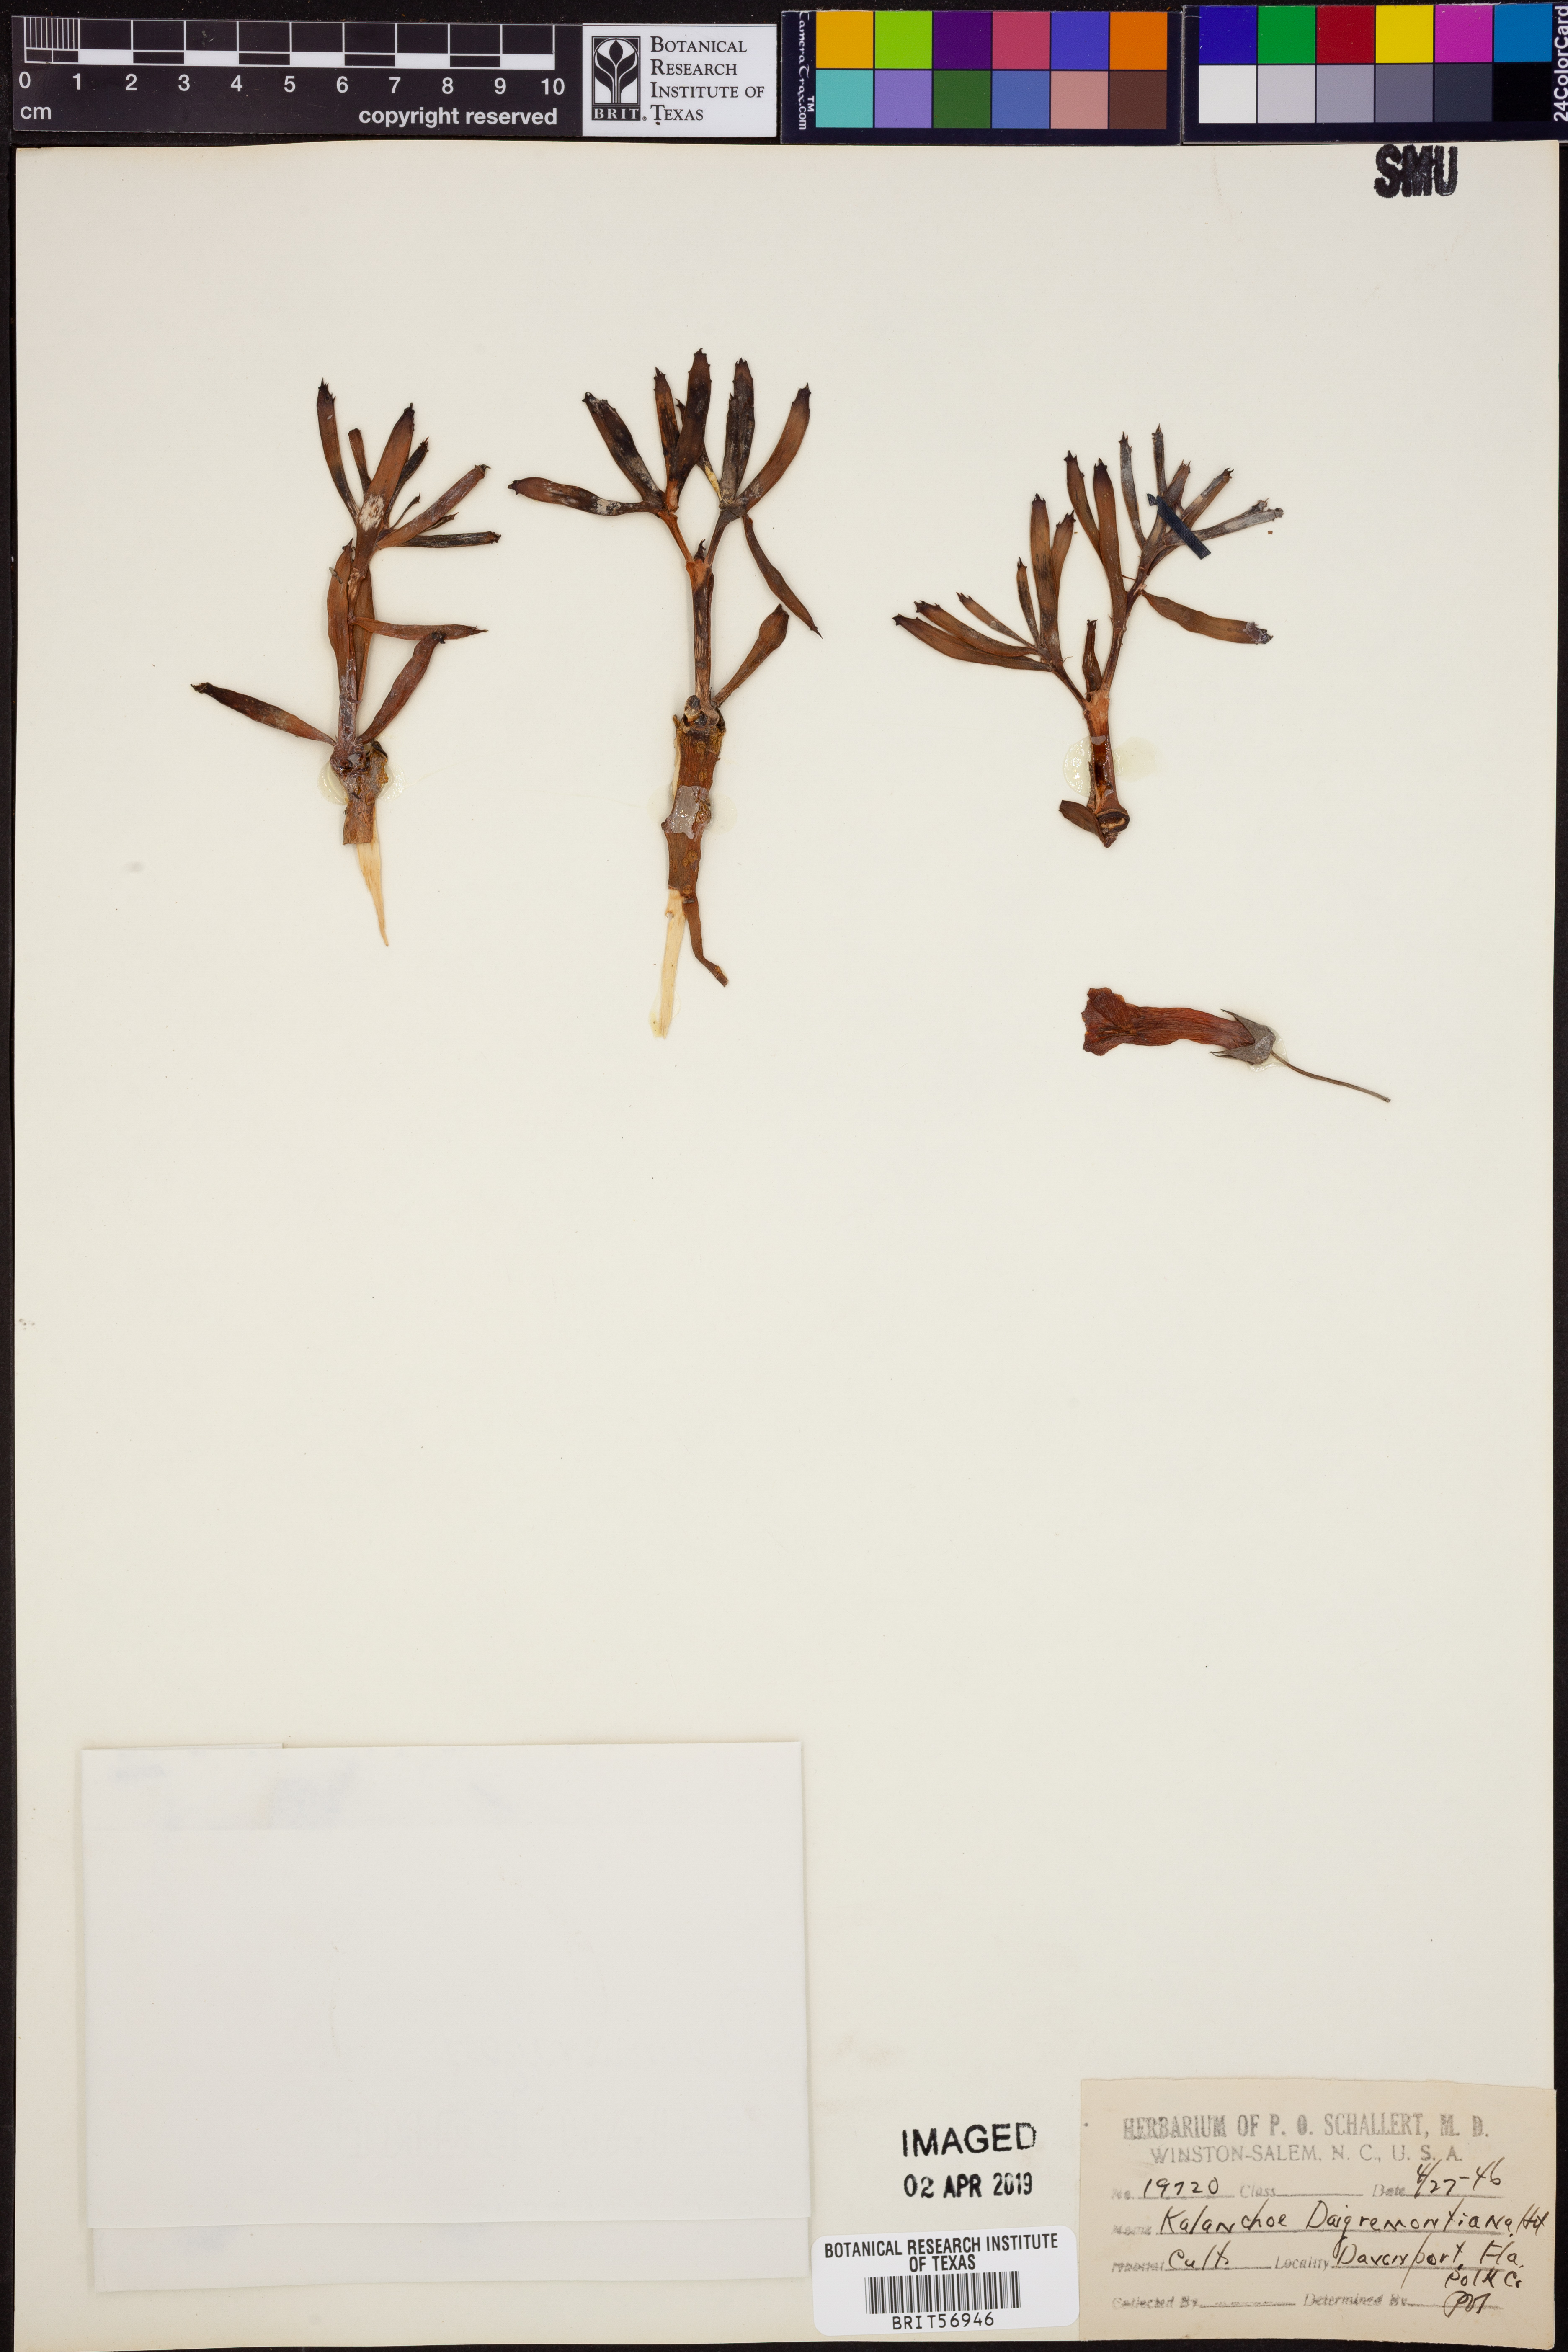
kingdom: Plantae
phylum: Tracheophyta
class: Magnoliopsida
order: Saxifragales
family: Crassulaceae
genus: Kalanchoe
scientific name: Kalanchoe daigremontiana
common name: Devil's backbone
